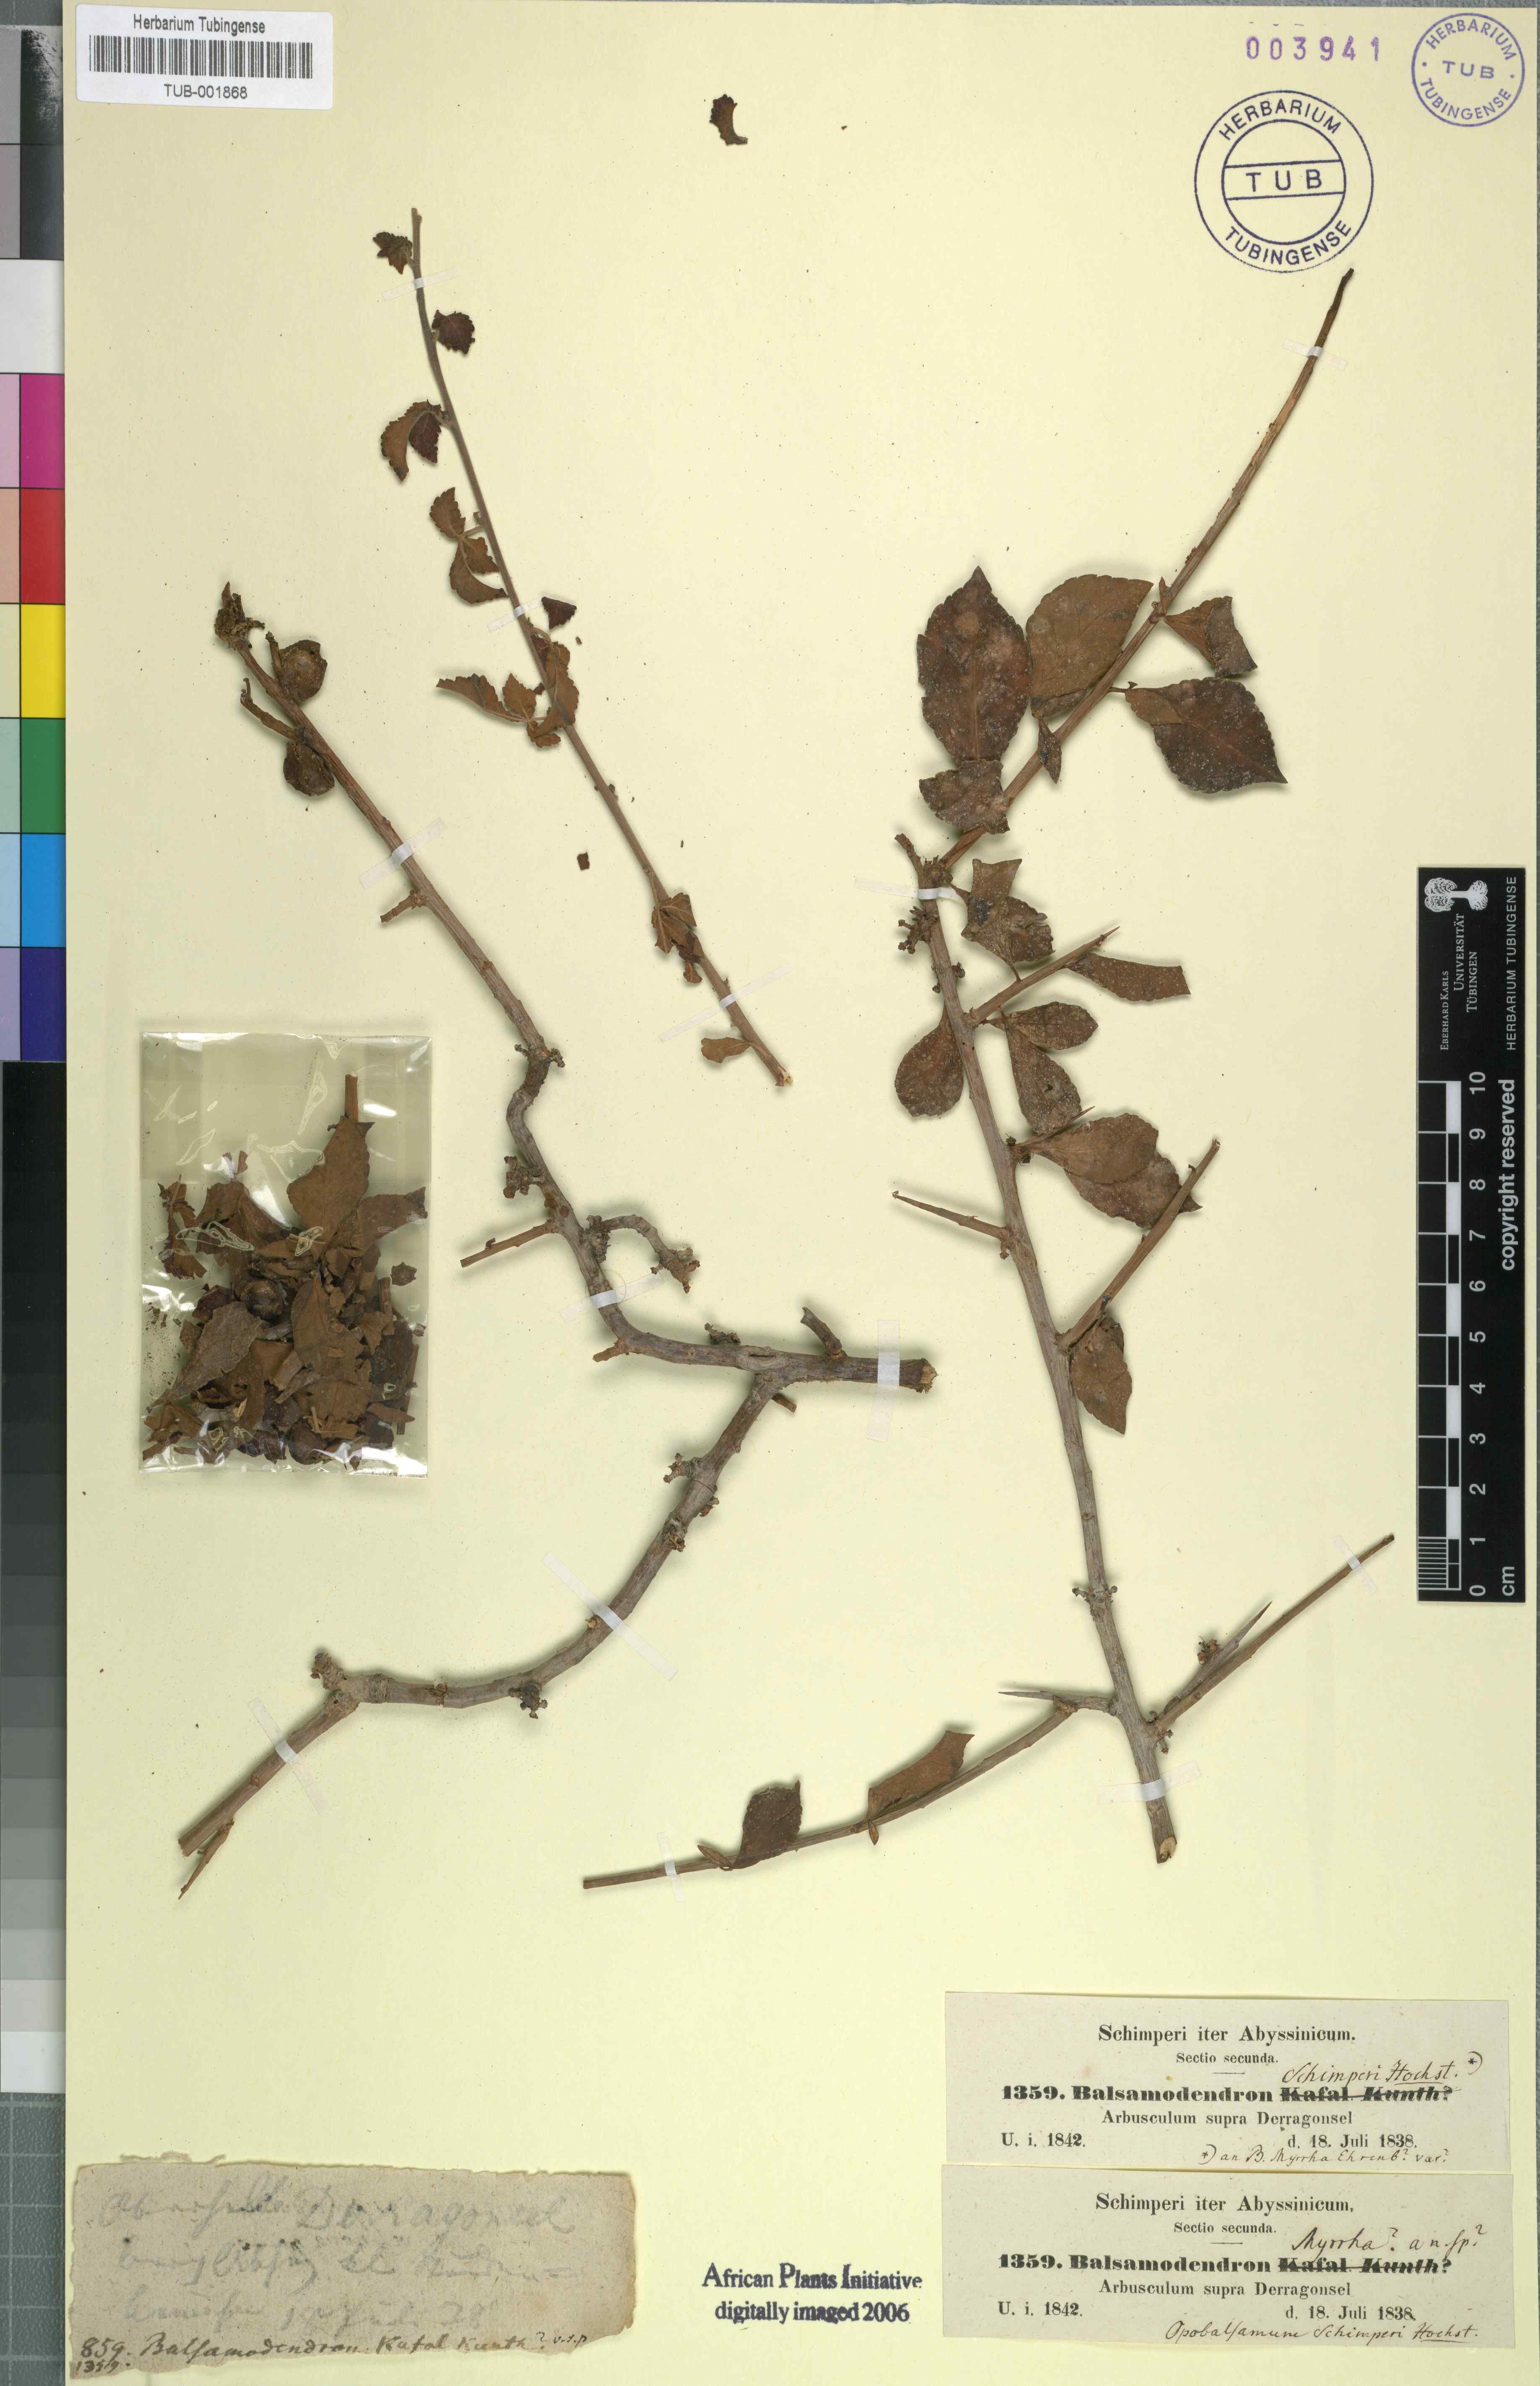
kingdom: Plantae
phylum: Tracheophyta
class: Magnoliopsida
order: Sapindales
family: Burseraceae
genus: Commiphora
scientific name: Commiphora schimperi
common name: Glossy-leaved corkwood
